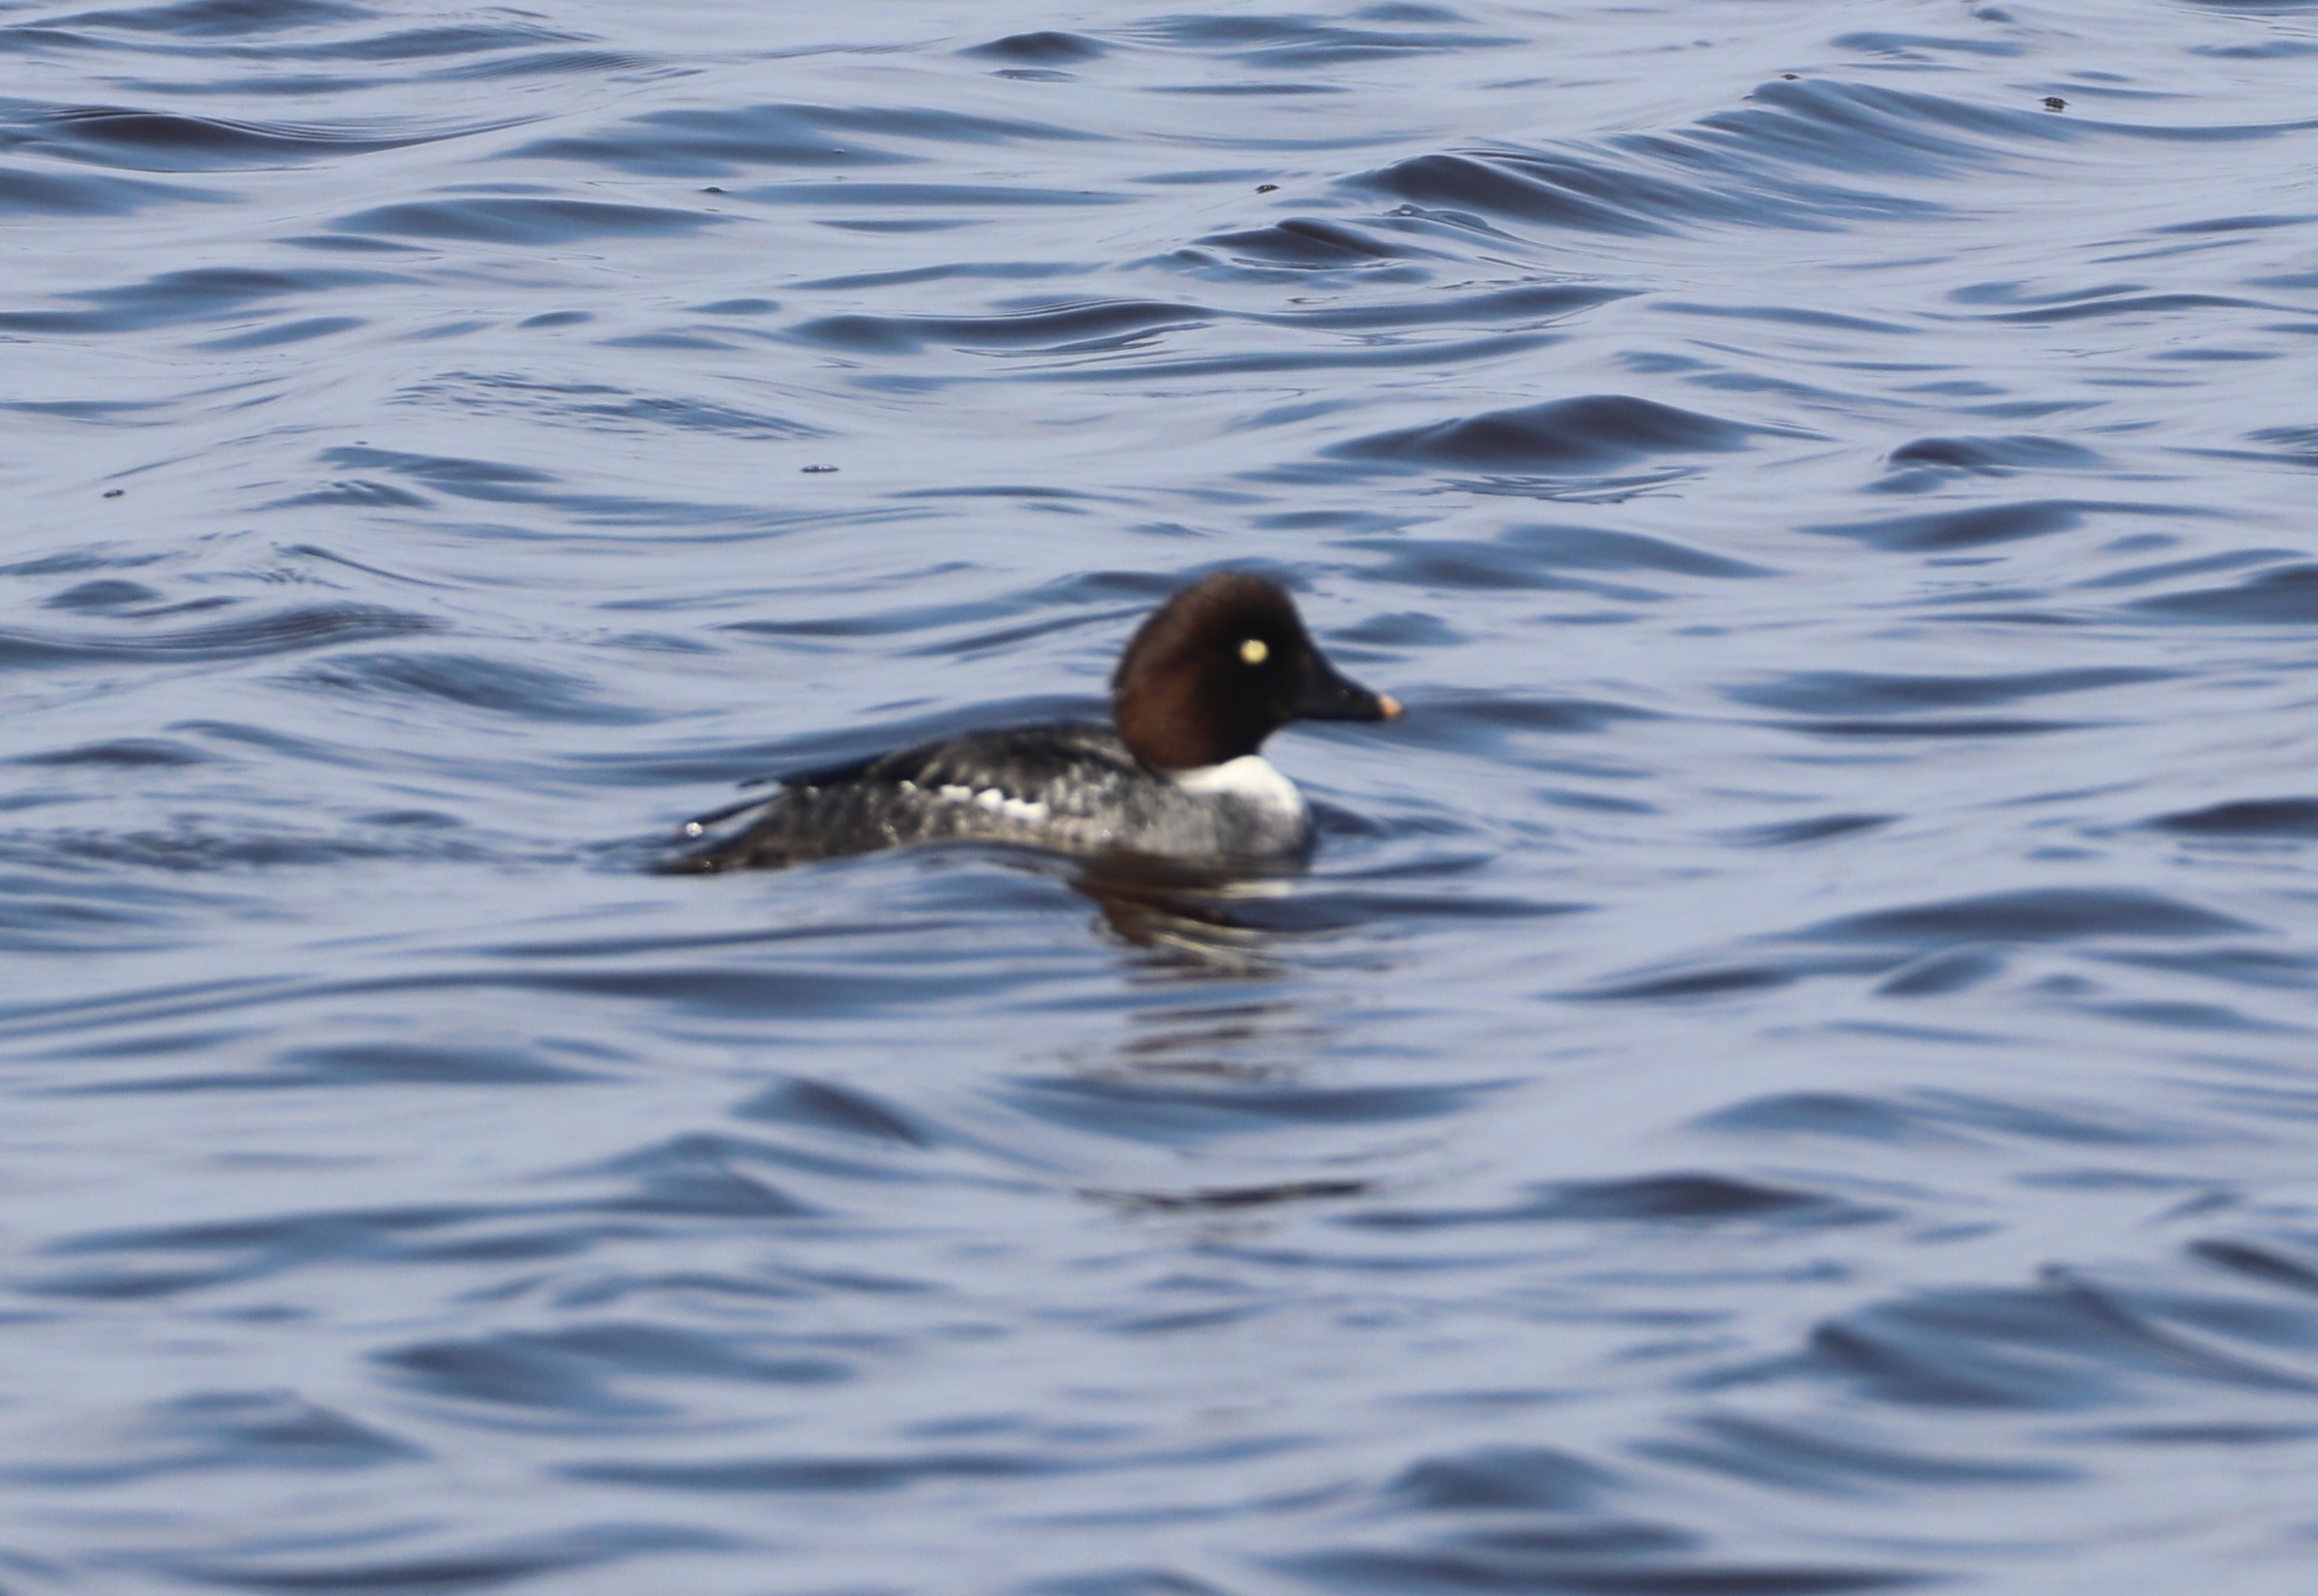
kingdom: Animalia
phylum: Chordata
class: Aves
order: Anseriformes
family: Anatidae
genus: Bucephala
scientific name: Bucephala clangula
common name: Hvinand
